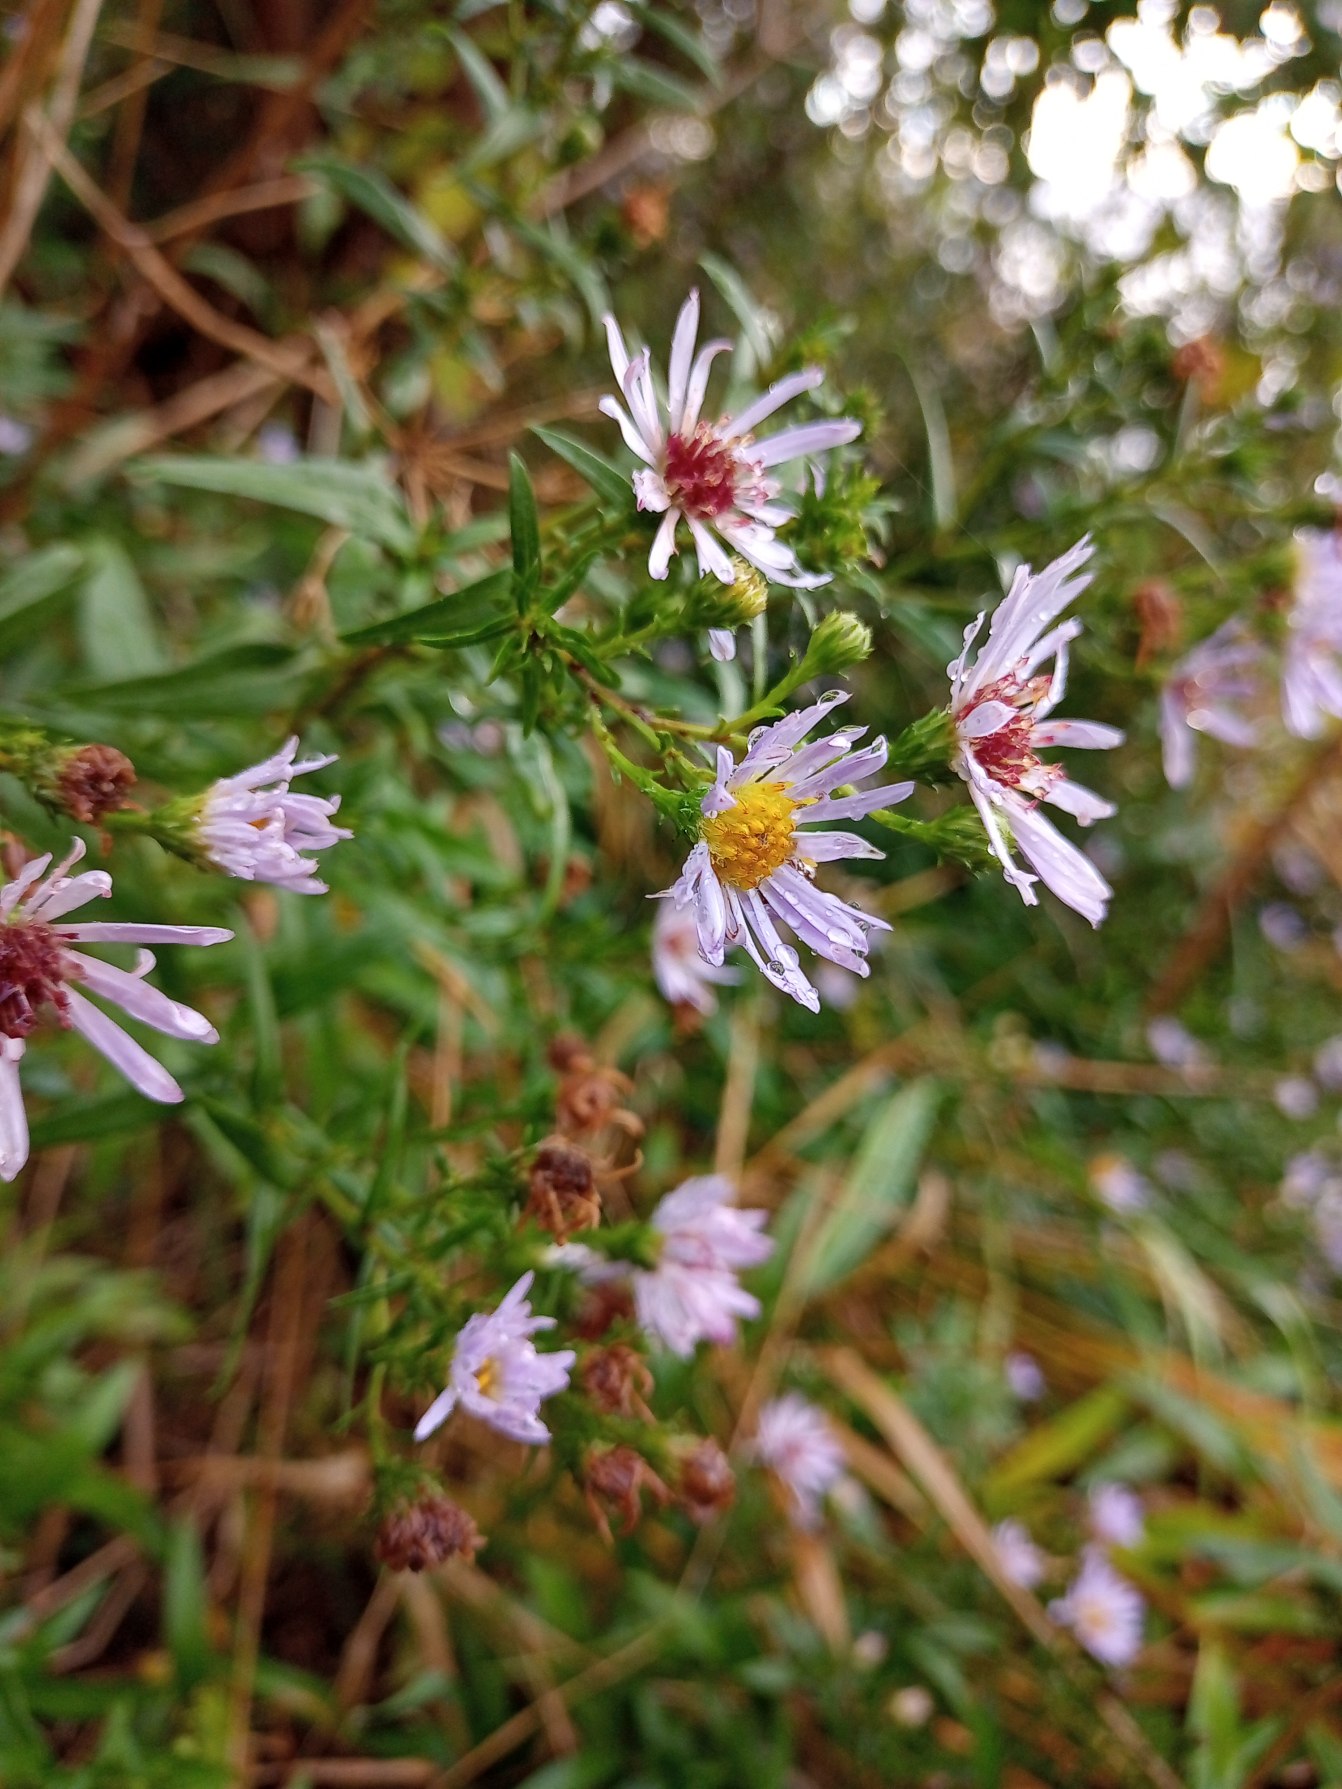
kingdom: Plantae
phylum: Tracheophyta
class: Magnoliopsida
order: Asterales
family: Asteraceae
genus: Symphyotrichum
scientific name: Symphyotrichum versicolor
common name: Broget asters
